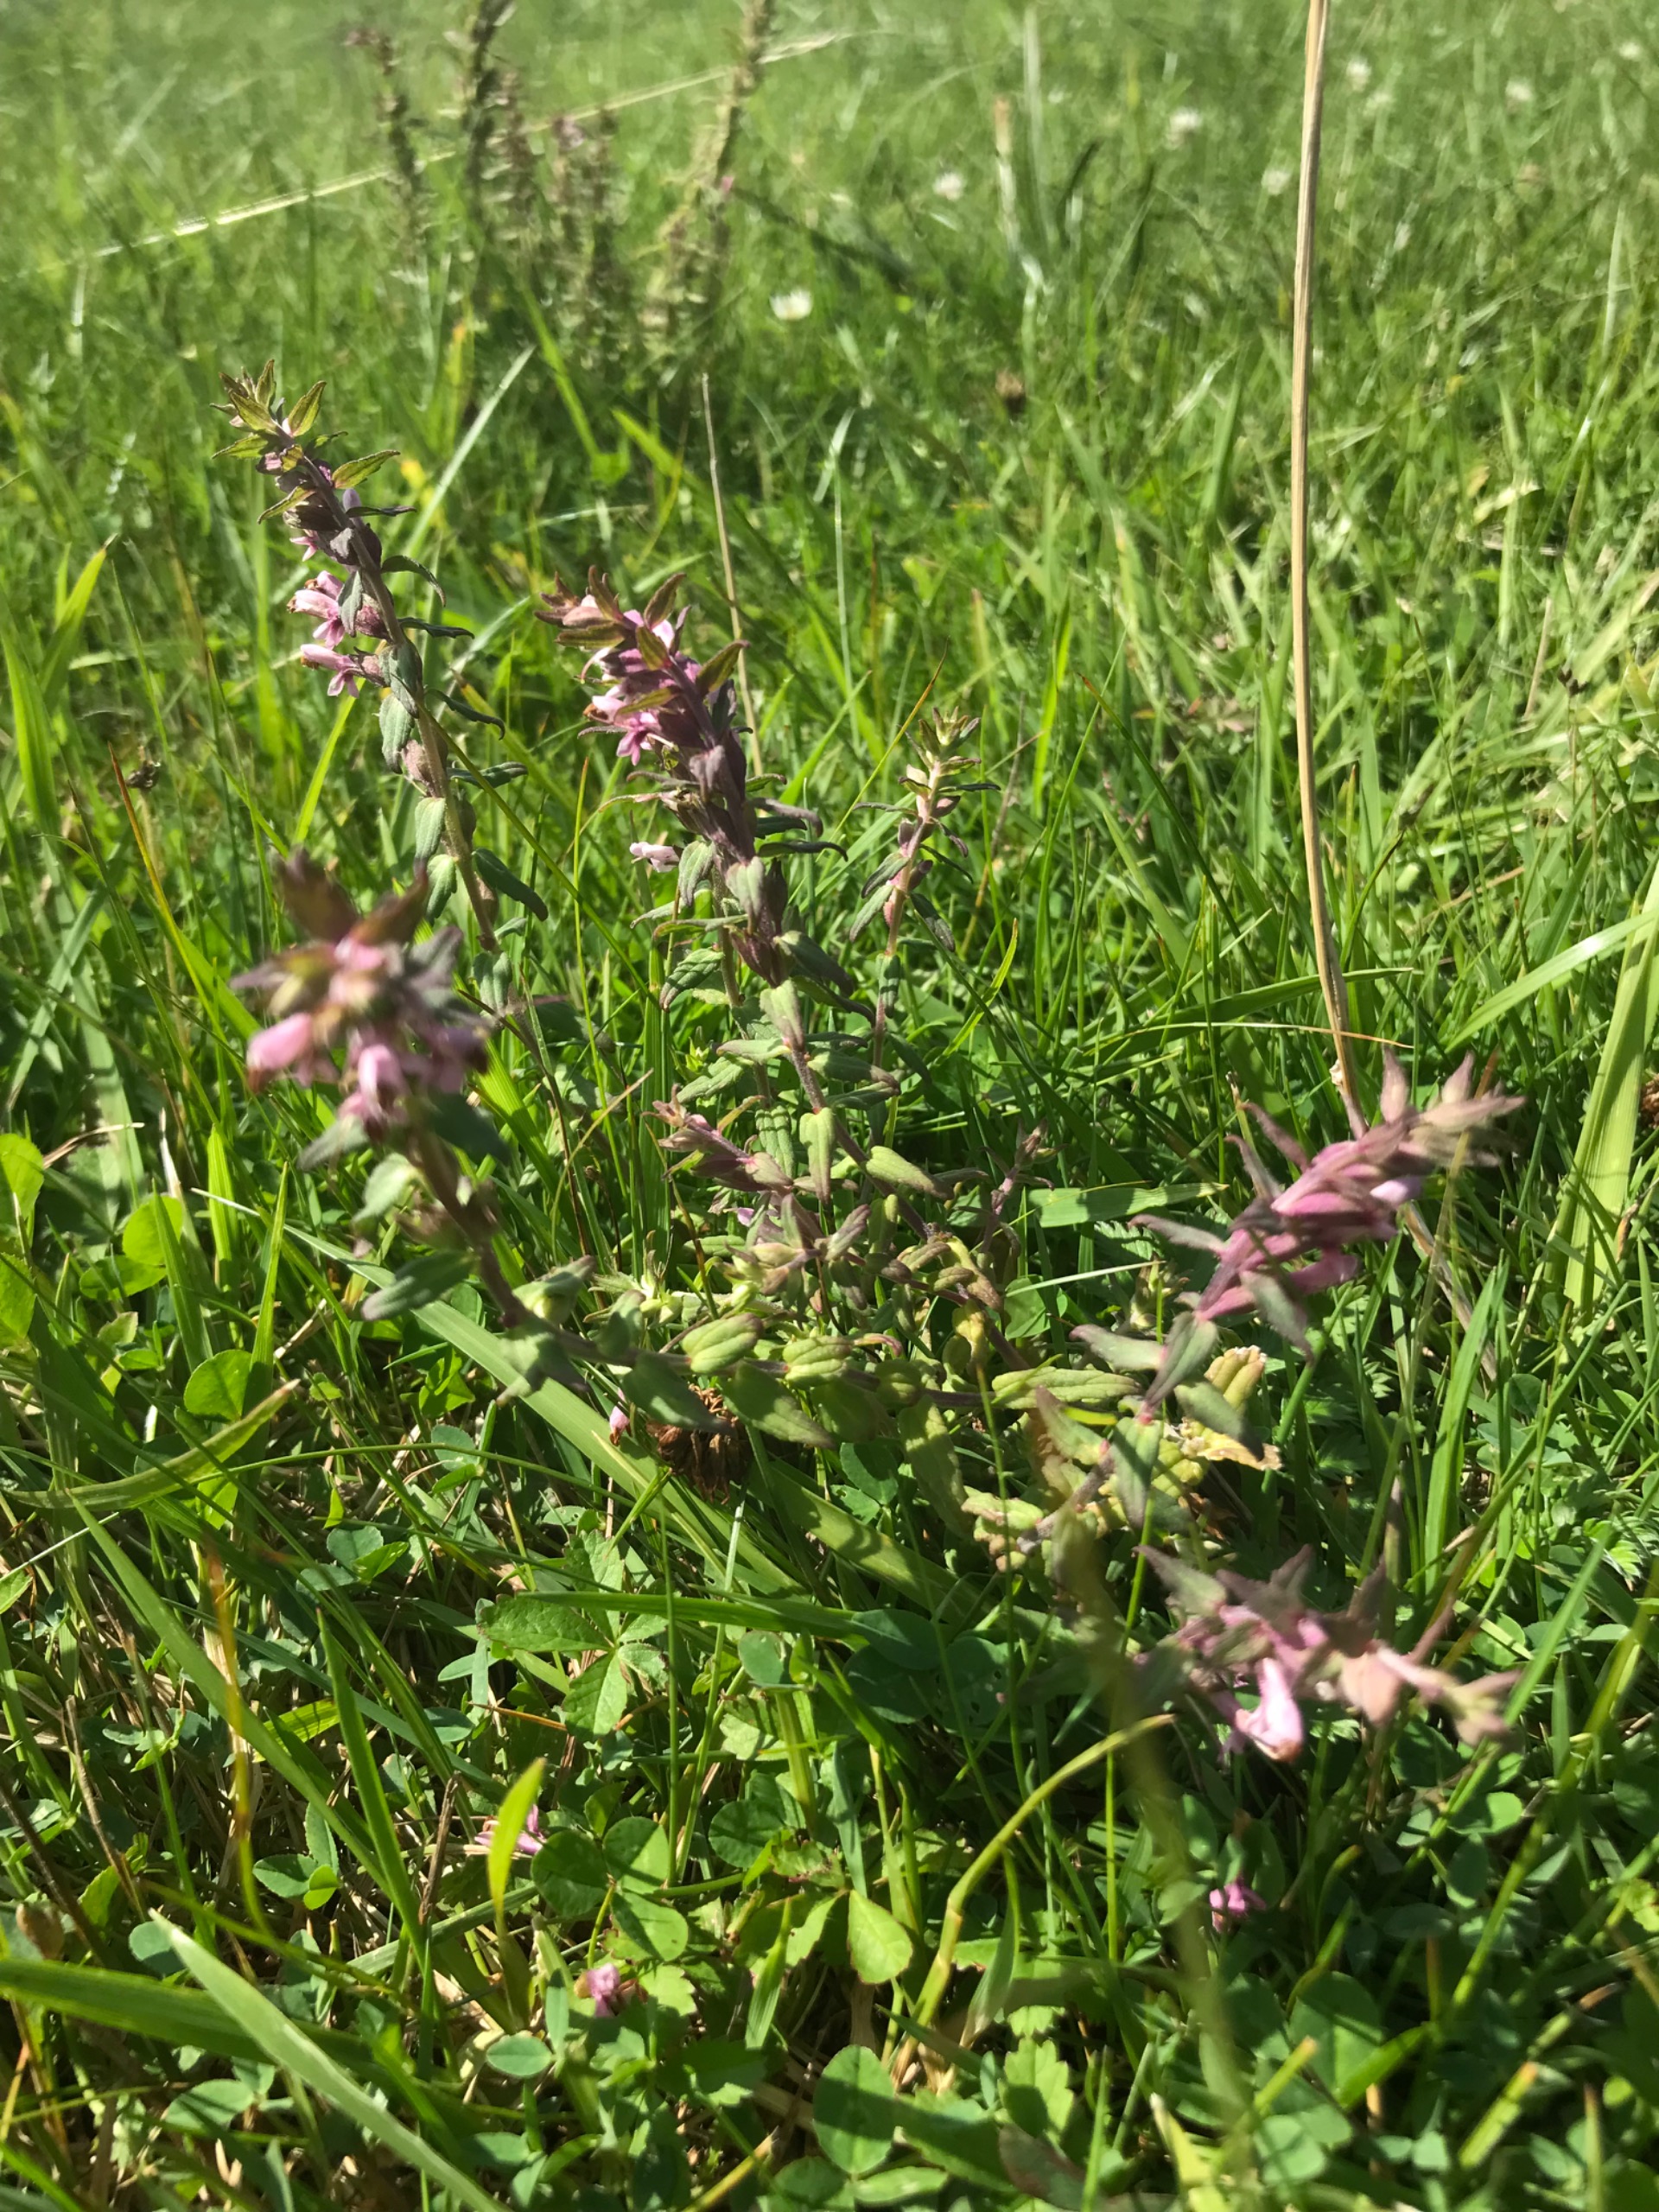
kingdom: Plantae
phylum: Tracheophyta
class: Magnoliopsida
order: Lamiales
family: Orobanchaceae
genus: Odontites
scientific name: Odontites
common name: Rødtopslægten
